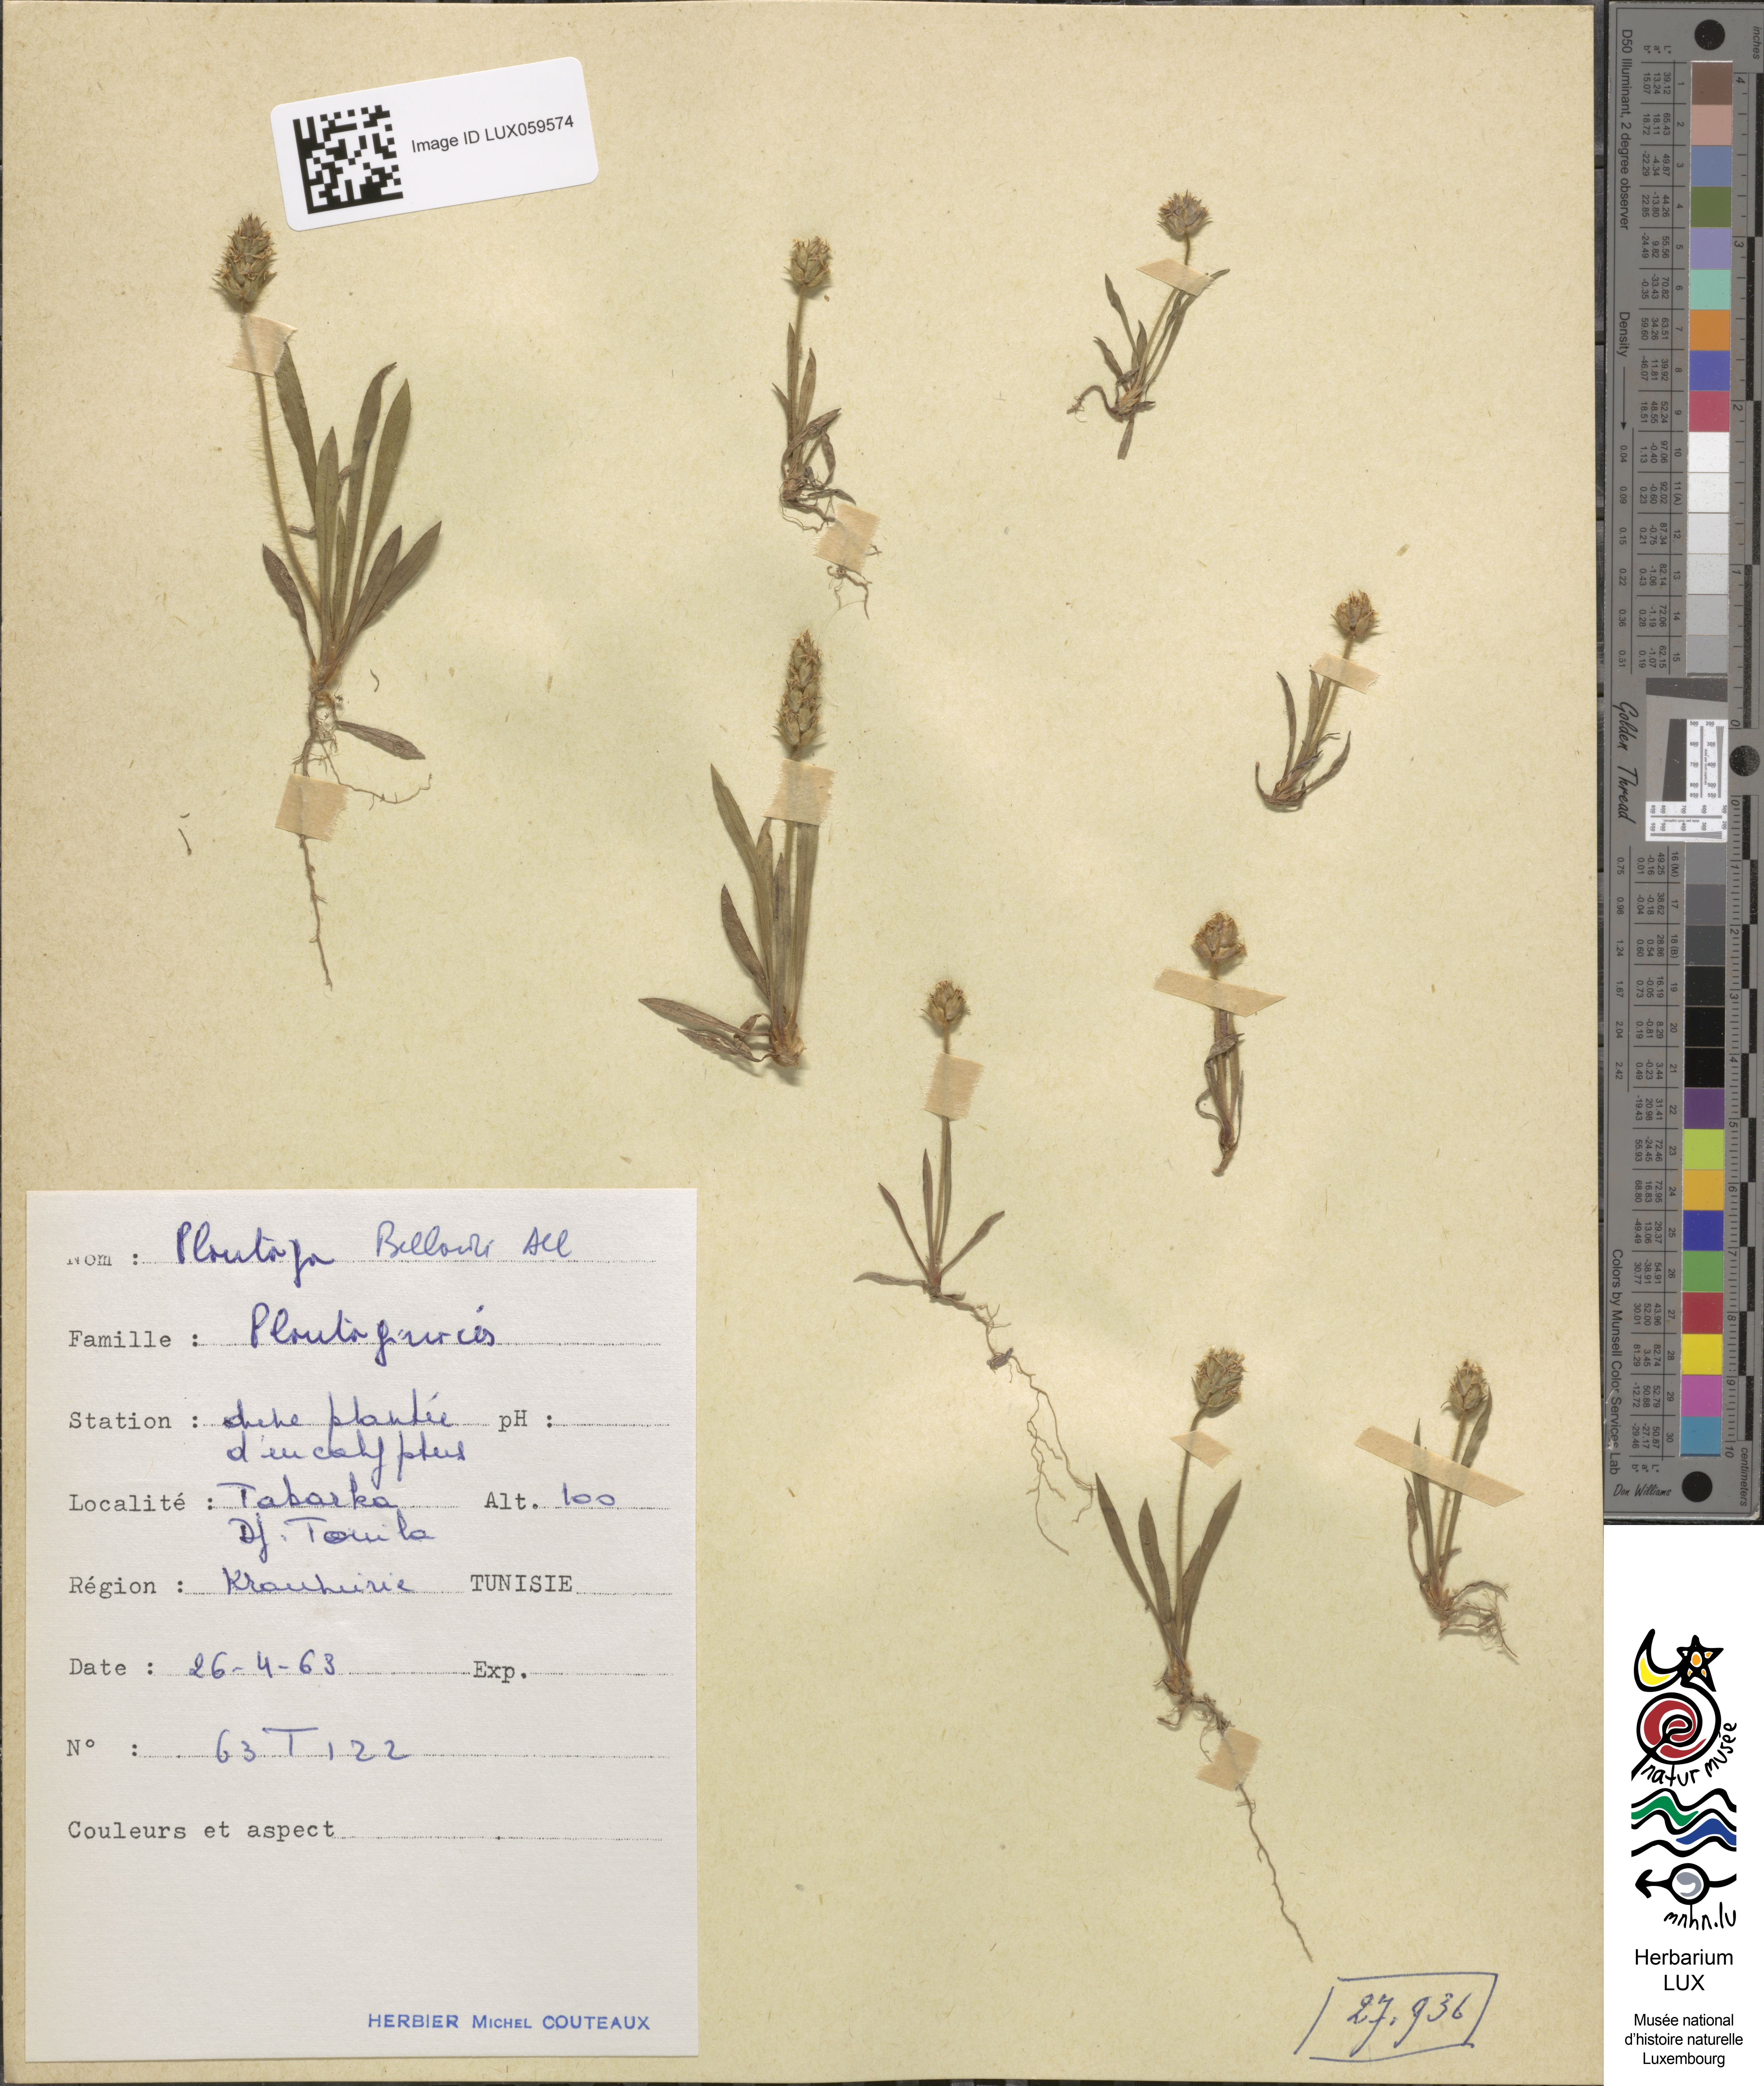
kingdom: Plantae
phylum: Tracheophyta
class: Magnoliopsida
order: Lamiales
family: Plantaginaceae
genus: Plantago
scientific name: Plantago bellardii
